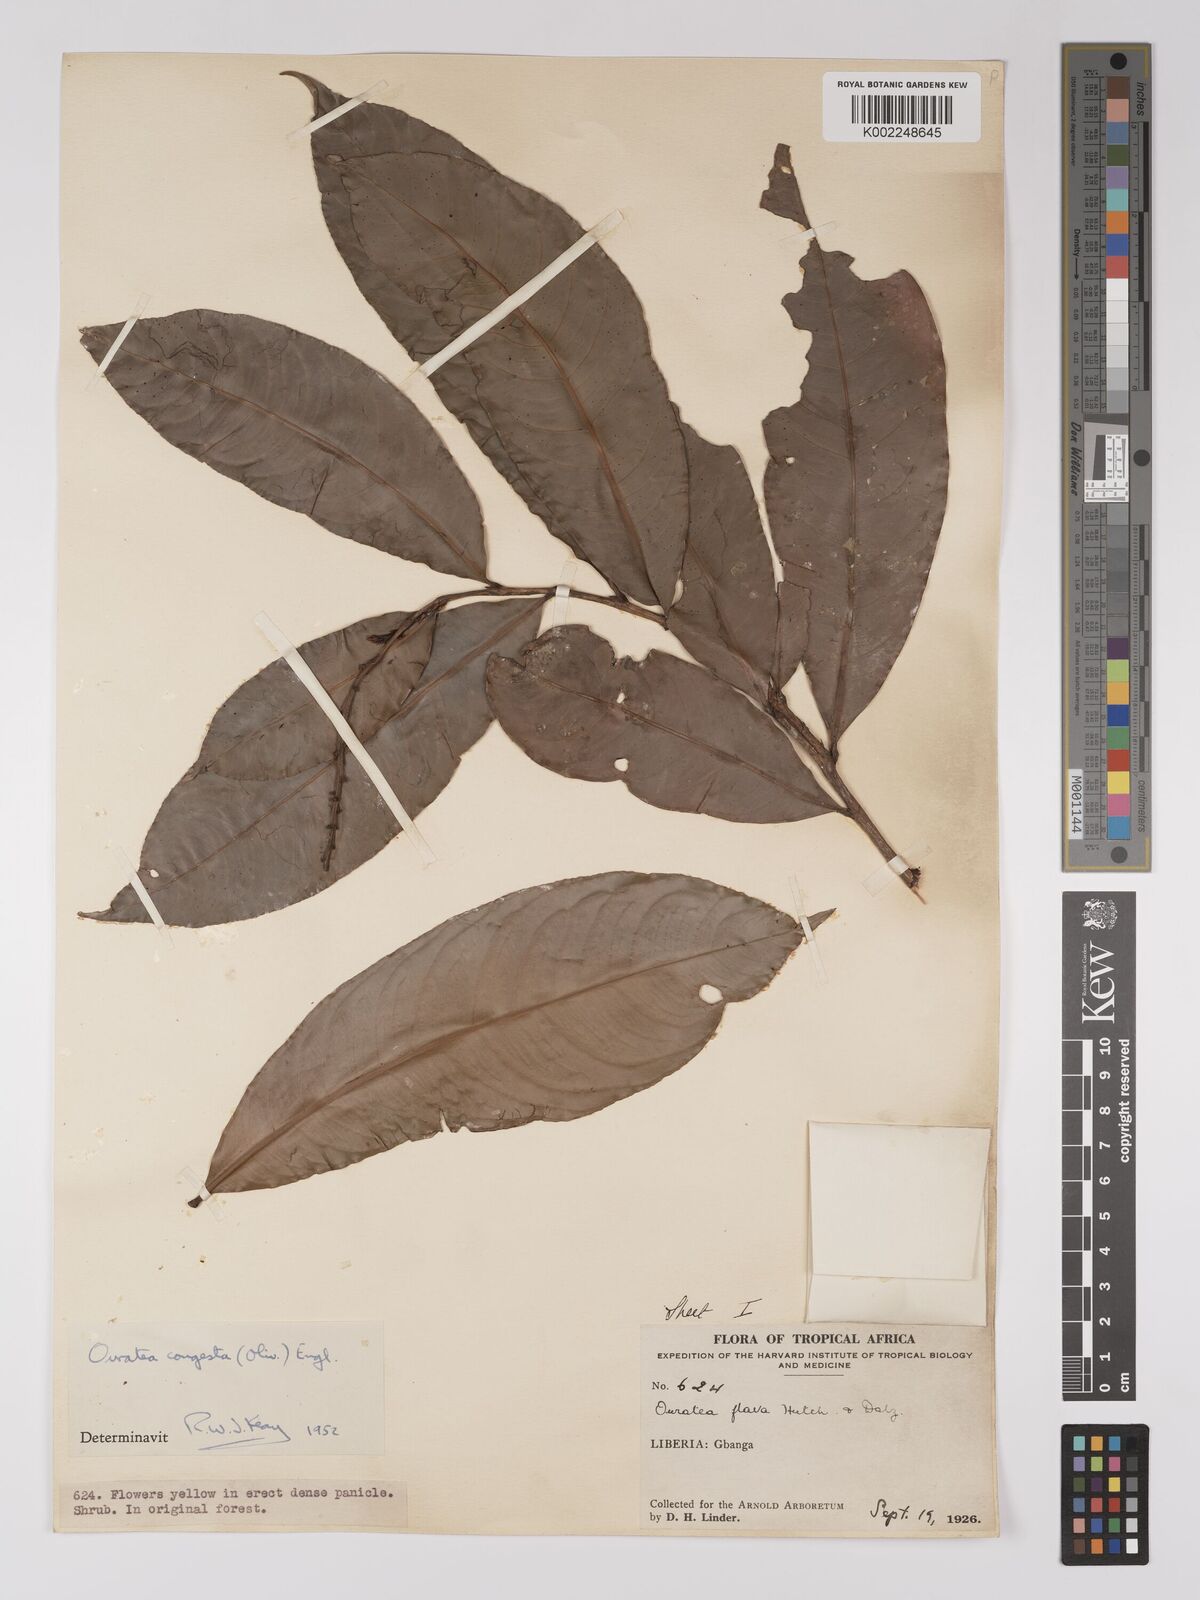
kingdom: Plantae
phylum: Tracheophyta
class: Magnoliopsida
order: Malpighiales
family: Ochnaceae
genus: Campylospermum
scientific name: Campylospermum congestum
